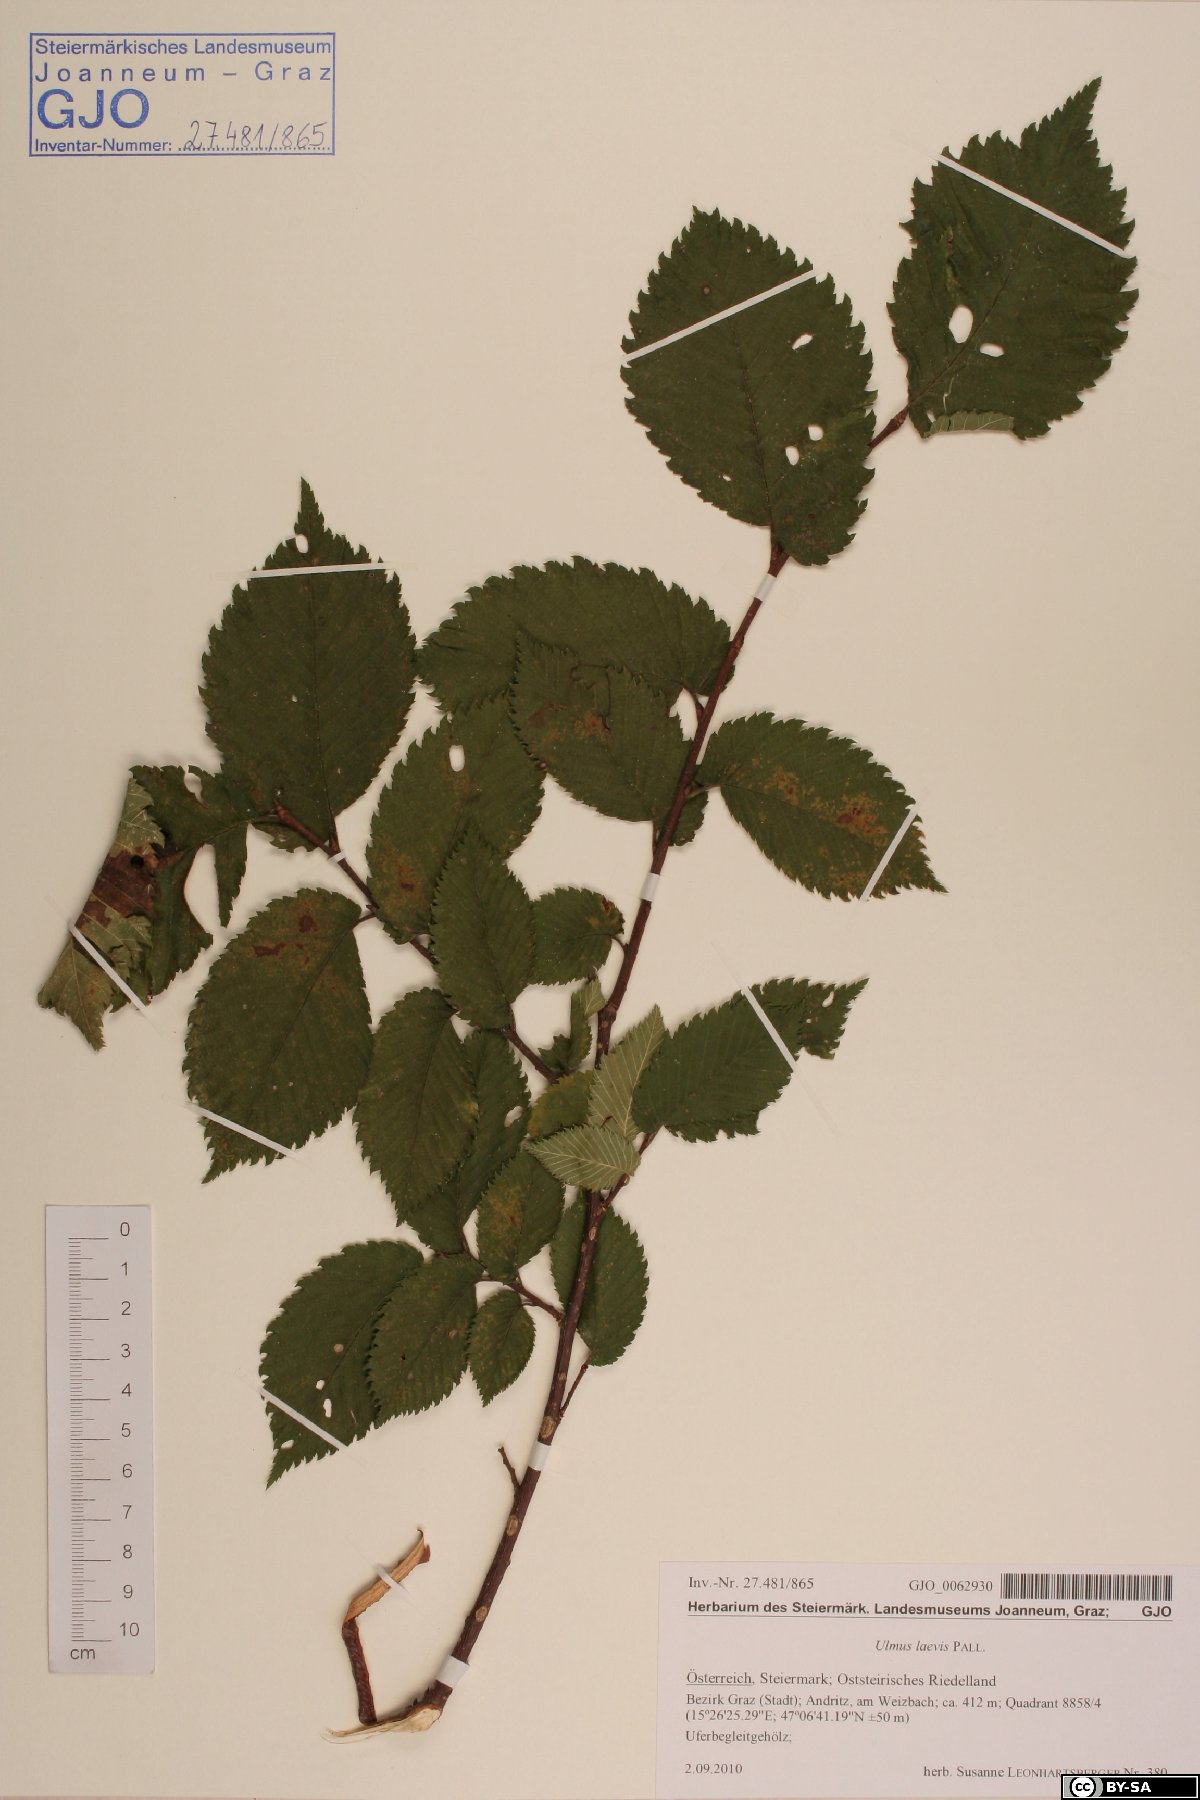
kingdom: Plantae
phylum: Tracheophyta
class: Magnoliopsida
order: Rosales
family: Ulmaceae
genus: Ulmus
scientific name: Ulmus laevis
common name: European white-elm
